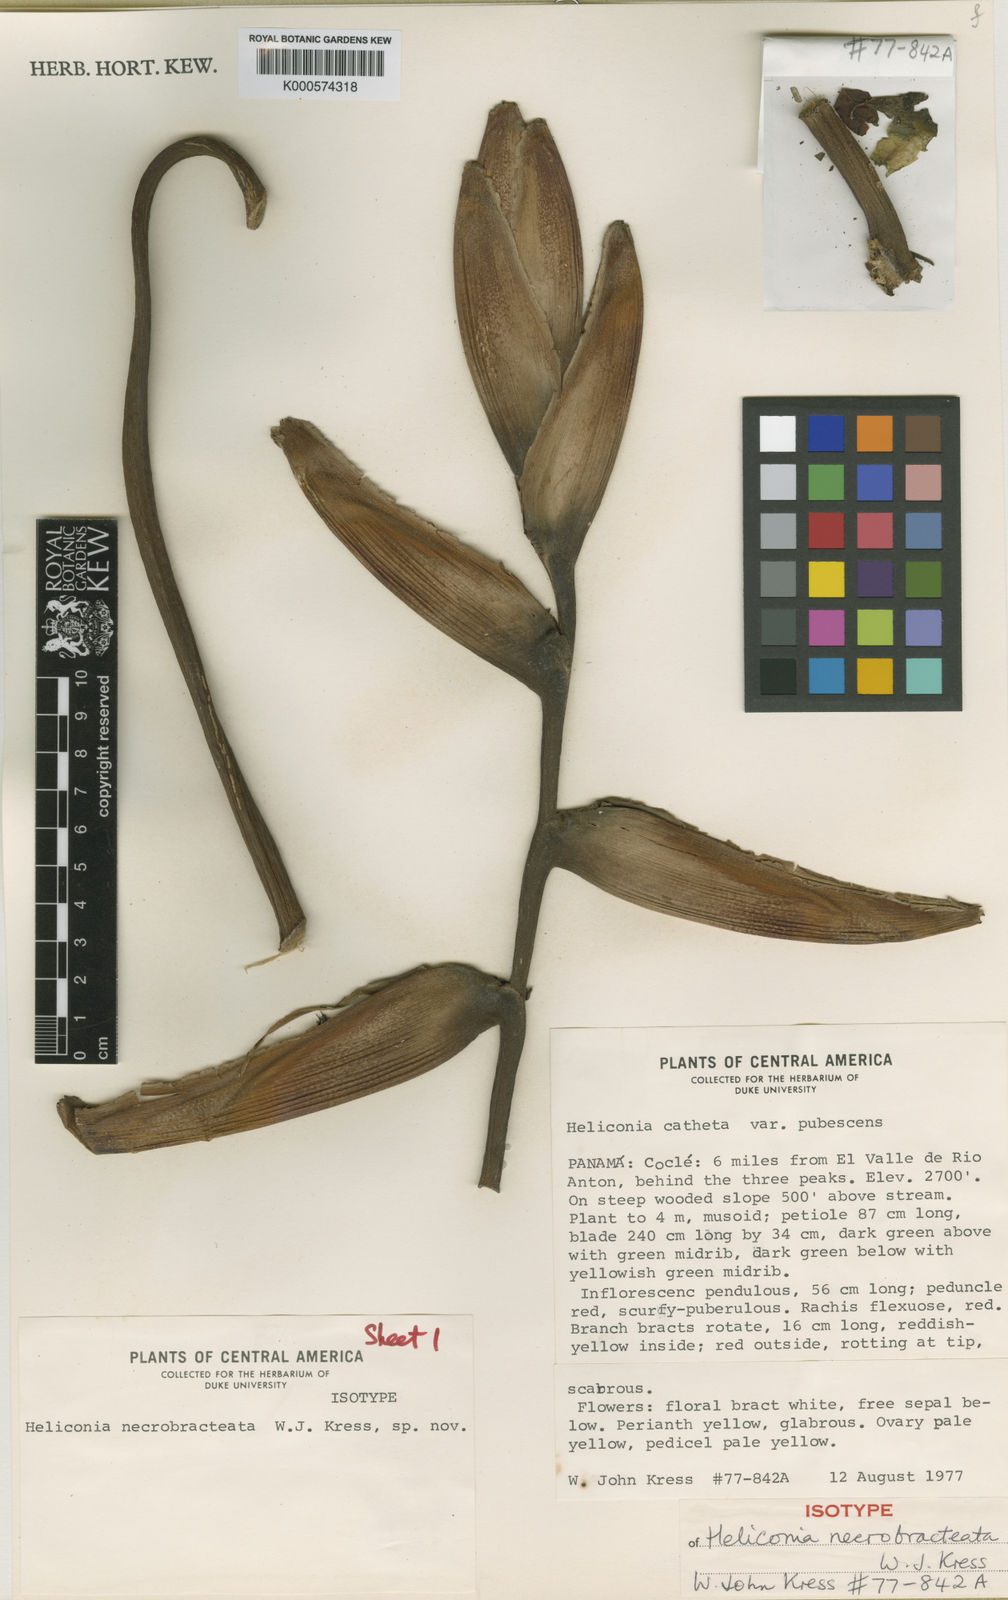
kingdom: Plantae
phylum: Tracheophyta
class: Liliopsida
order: Zingiberales
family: Heliconiaceae
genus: Heliconia
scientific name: Heliconia necrobracteata
